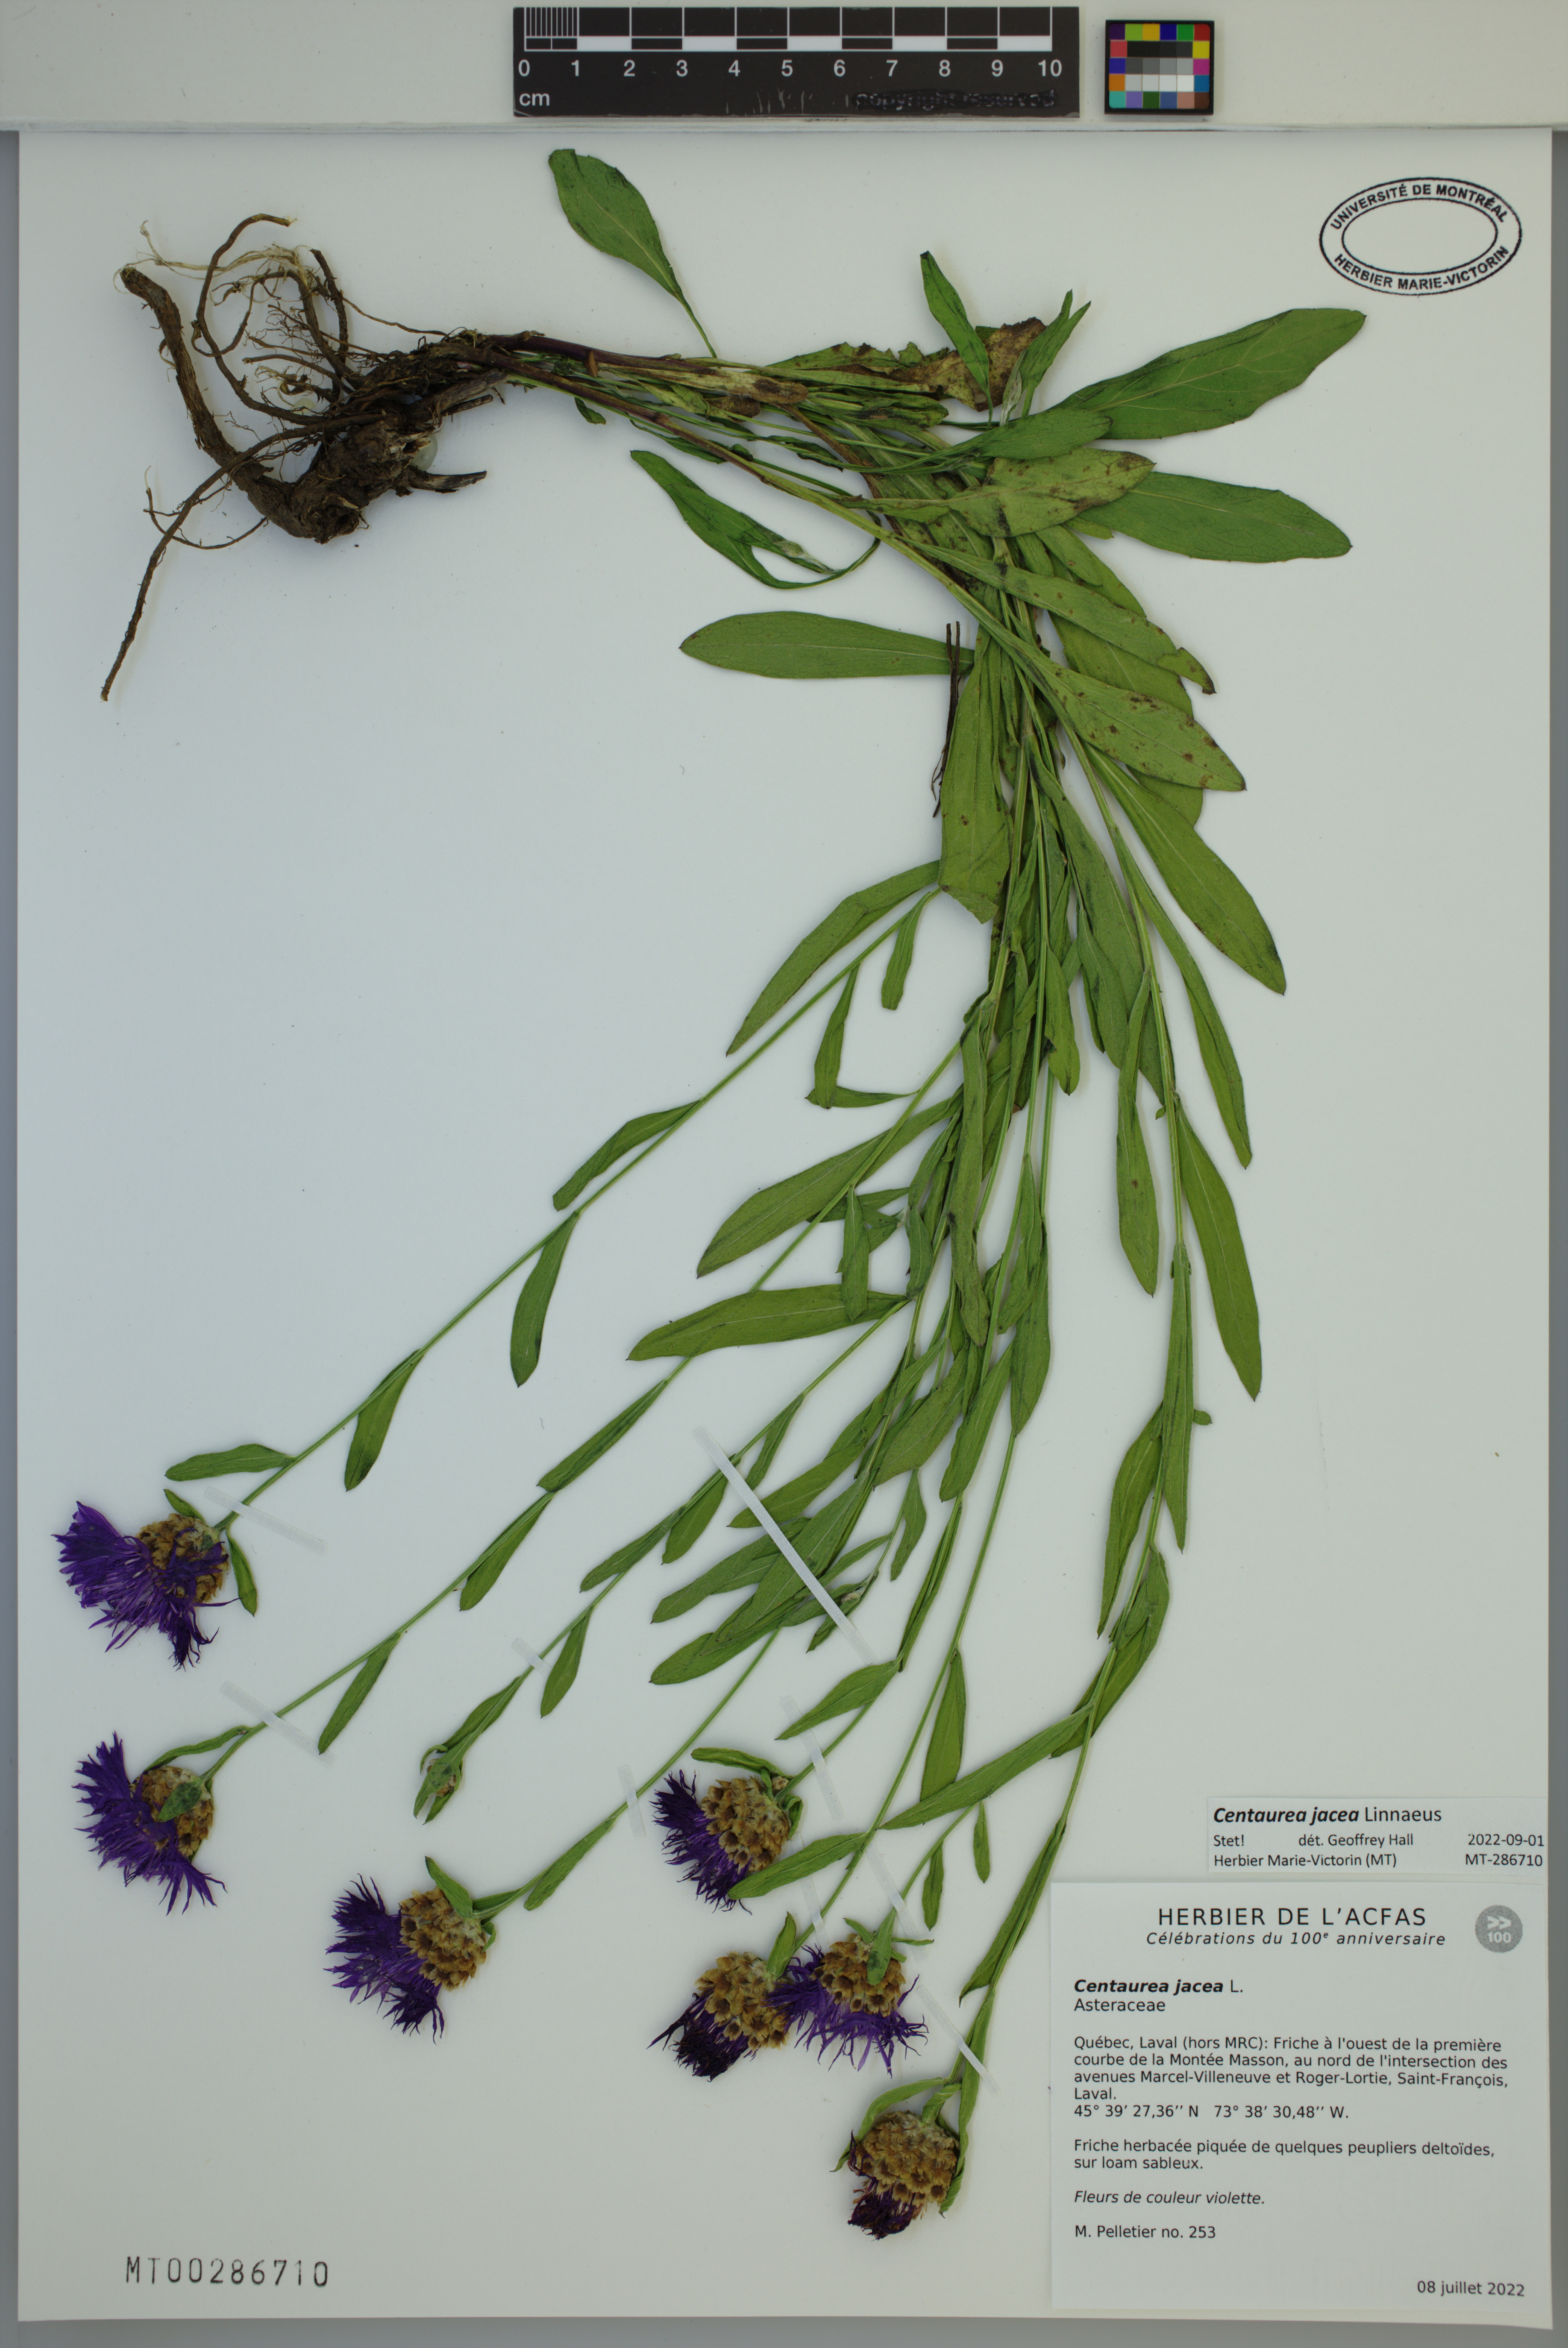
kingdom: Plantae
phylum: Tracheophyta
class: Magnoliopsida
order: Asterales
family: Asteraceae
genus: Centaurea
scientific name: Centaurea jacea
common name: Brown knapweed
